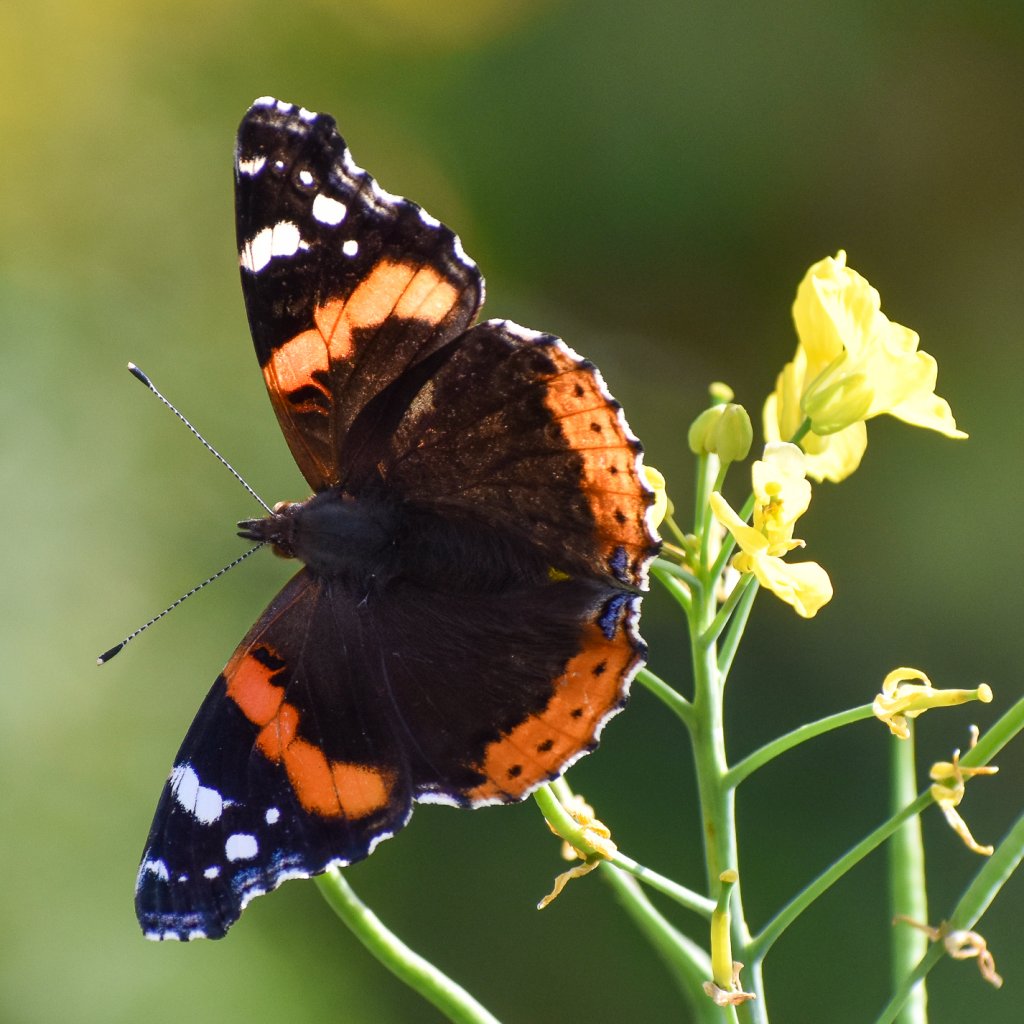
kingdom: Animalia
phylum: Arthropoda
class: Insecta
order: Lepidoptera
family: Nymphalidae
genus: Vanessa
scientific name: Vanessa atalanta
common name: Red Admiral
